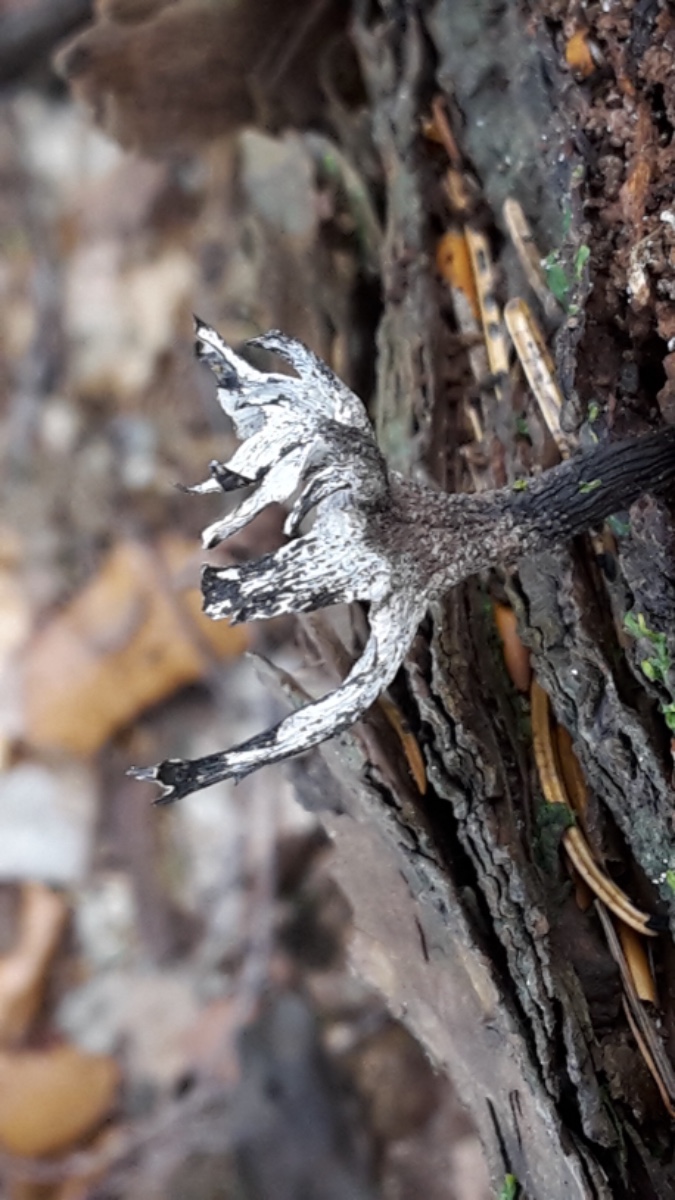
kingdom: Fungi
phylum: Ascomycota
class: Sordariomycetes
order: Xylariales
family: Xylariaceae
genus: Xylaria
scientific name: Xylaria hypoxylon
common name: grenet stødsvamp
